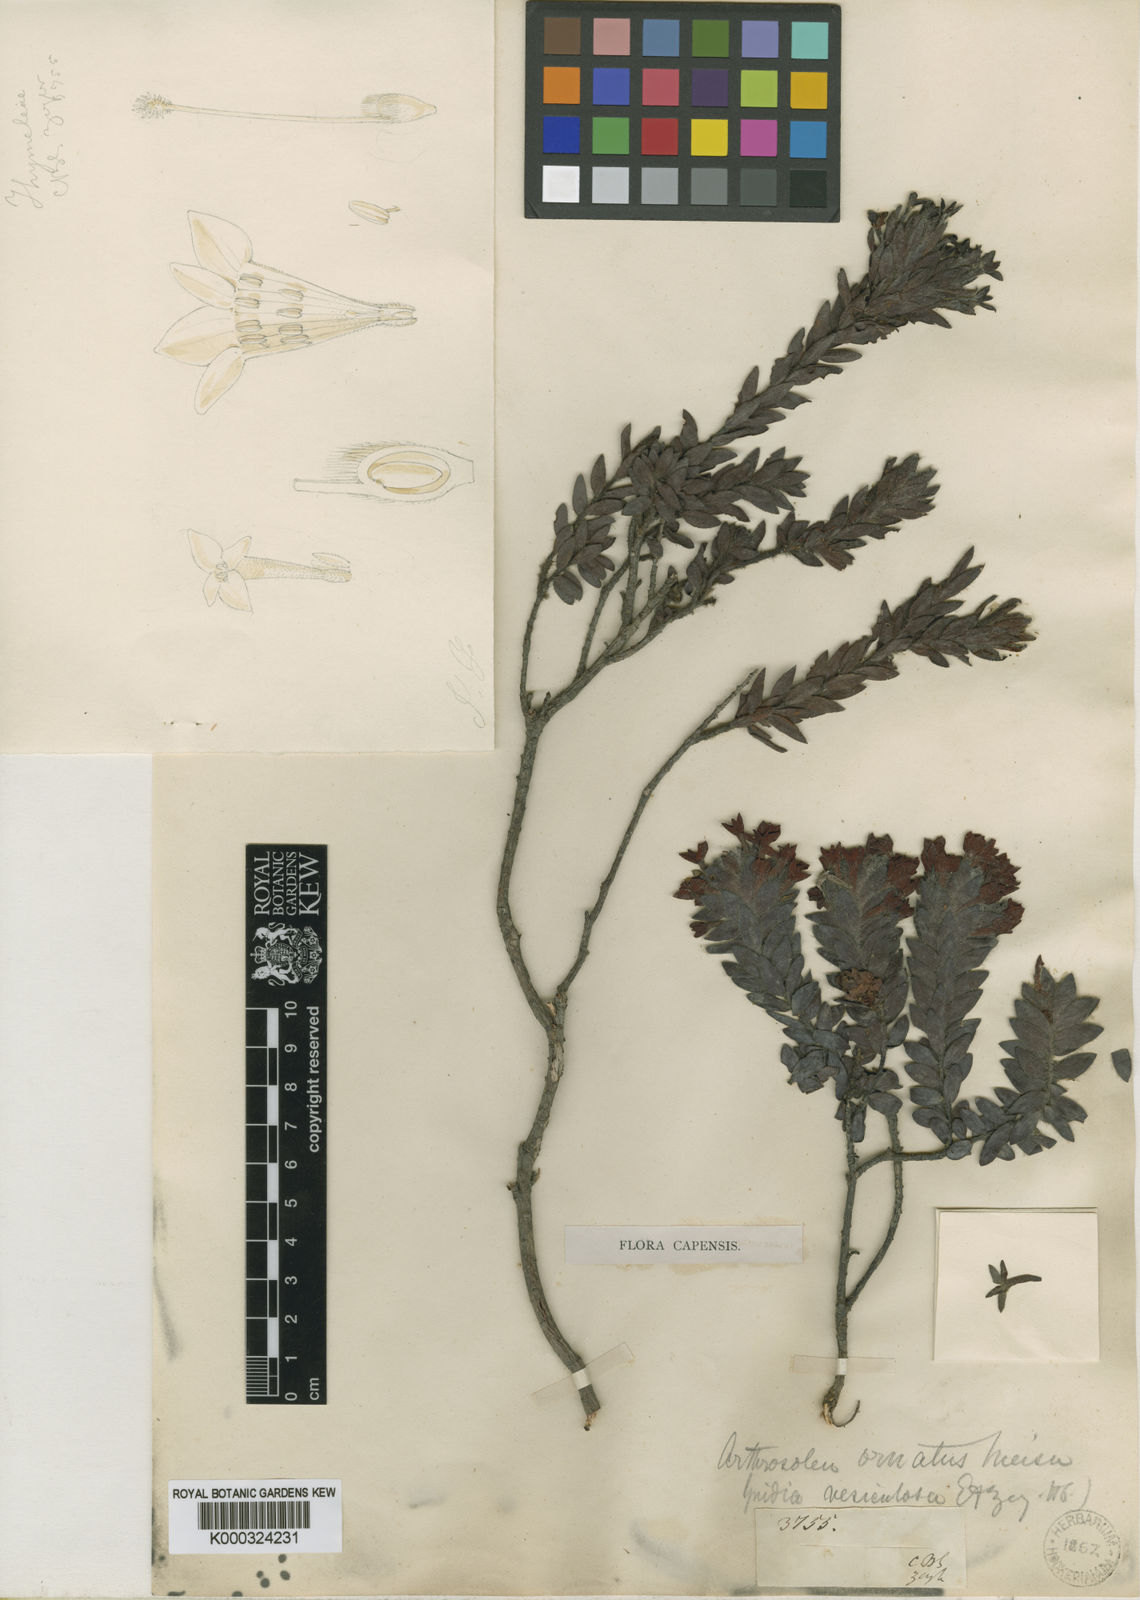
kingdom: Plantae
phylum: Tracheophyta
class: Magnoliopsida
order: Malvales
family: Thymelaeaceae
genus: Gnidia
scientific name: Gnidia ornata
